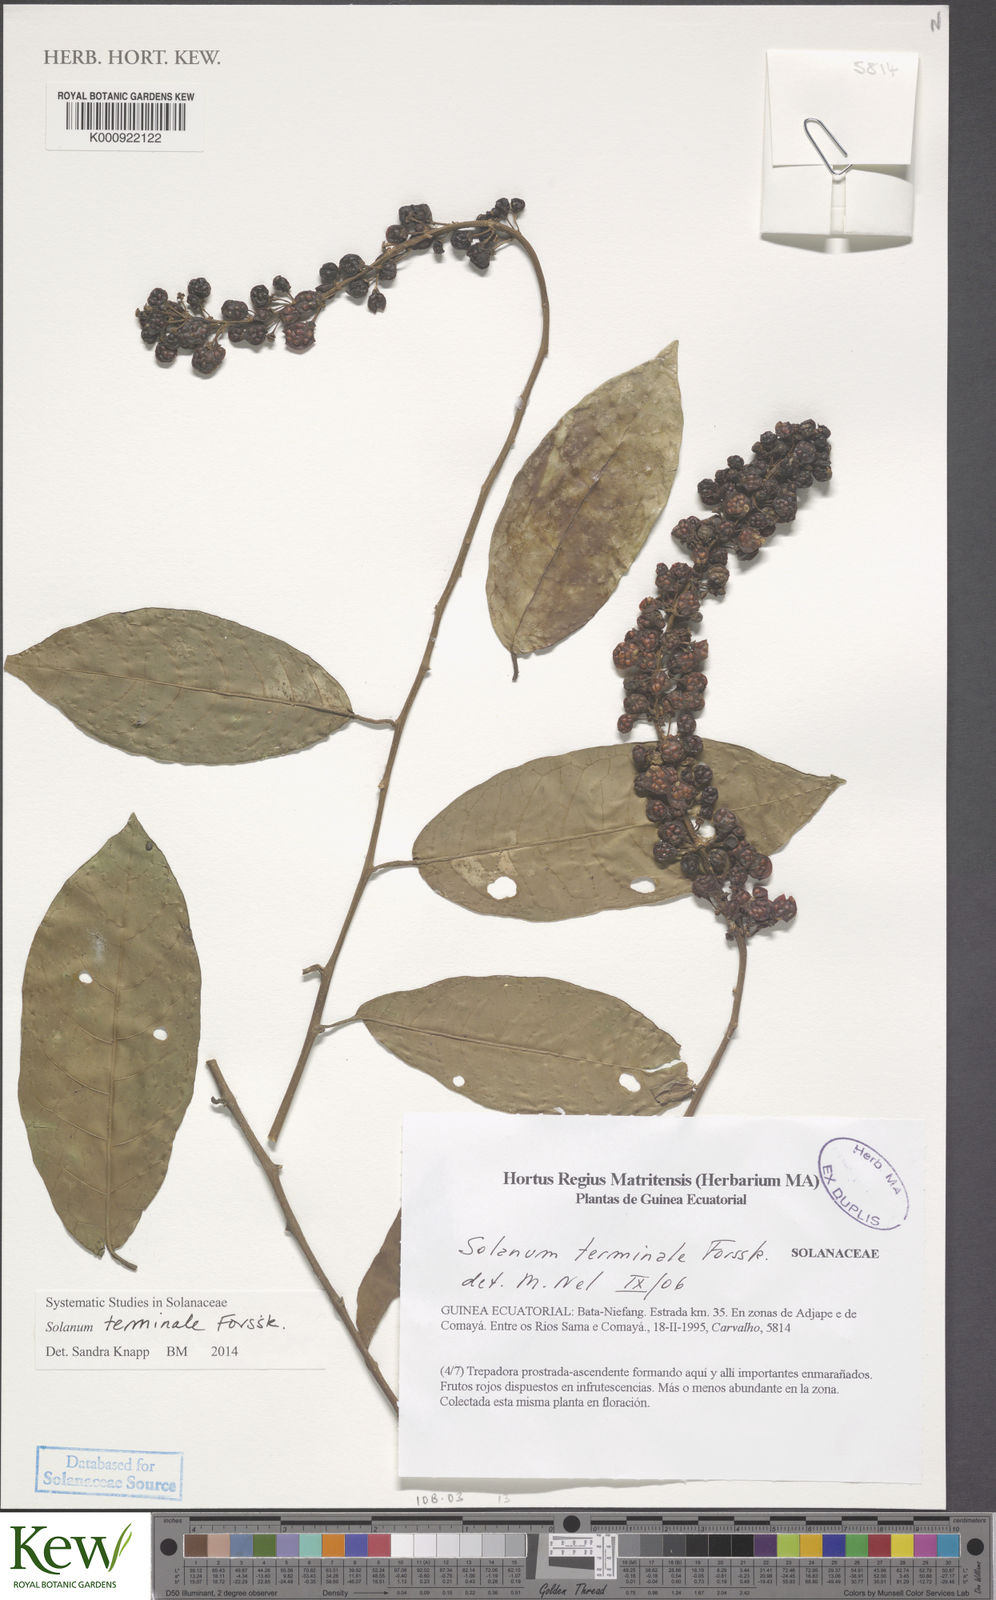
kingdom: Plantae
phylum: Tracheophyta
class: Magnoliopsida
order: Solanales
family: Solanaceae
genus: Solanum
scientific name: Solanum terminale
